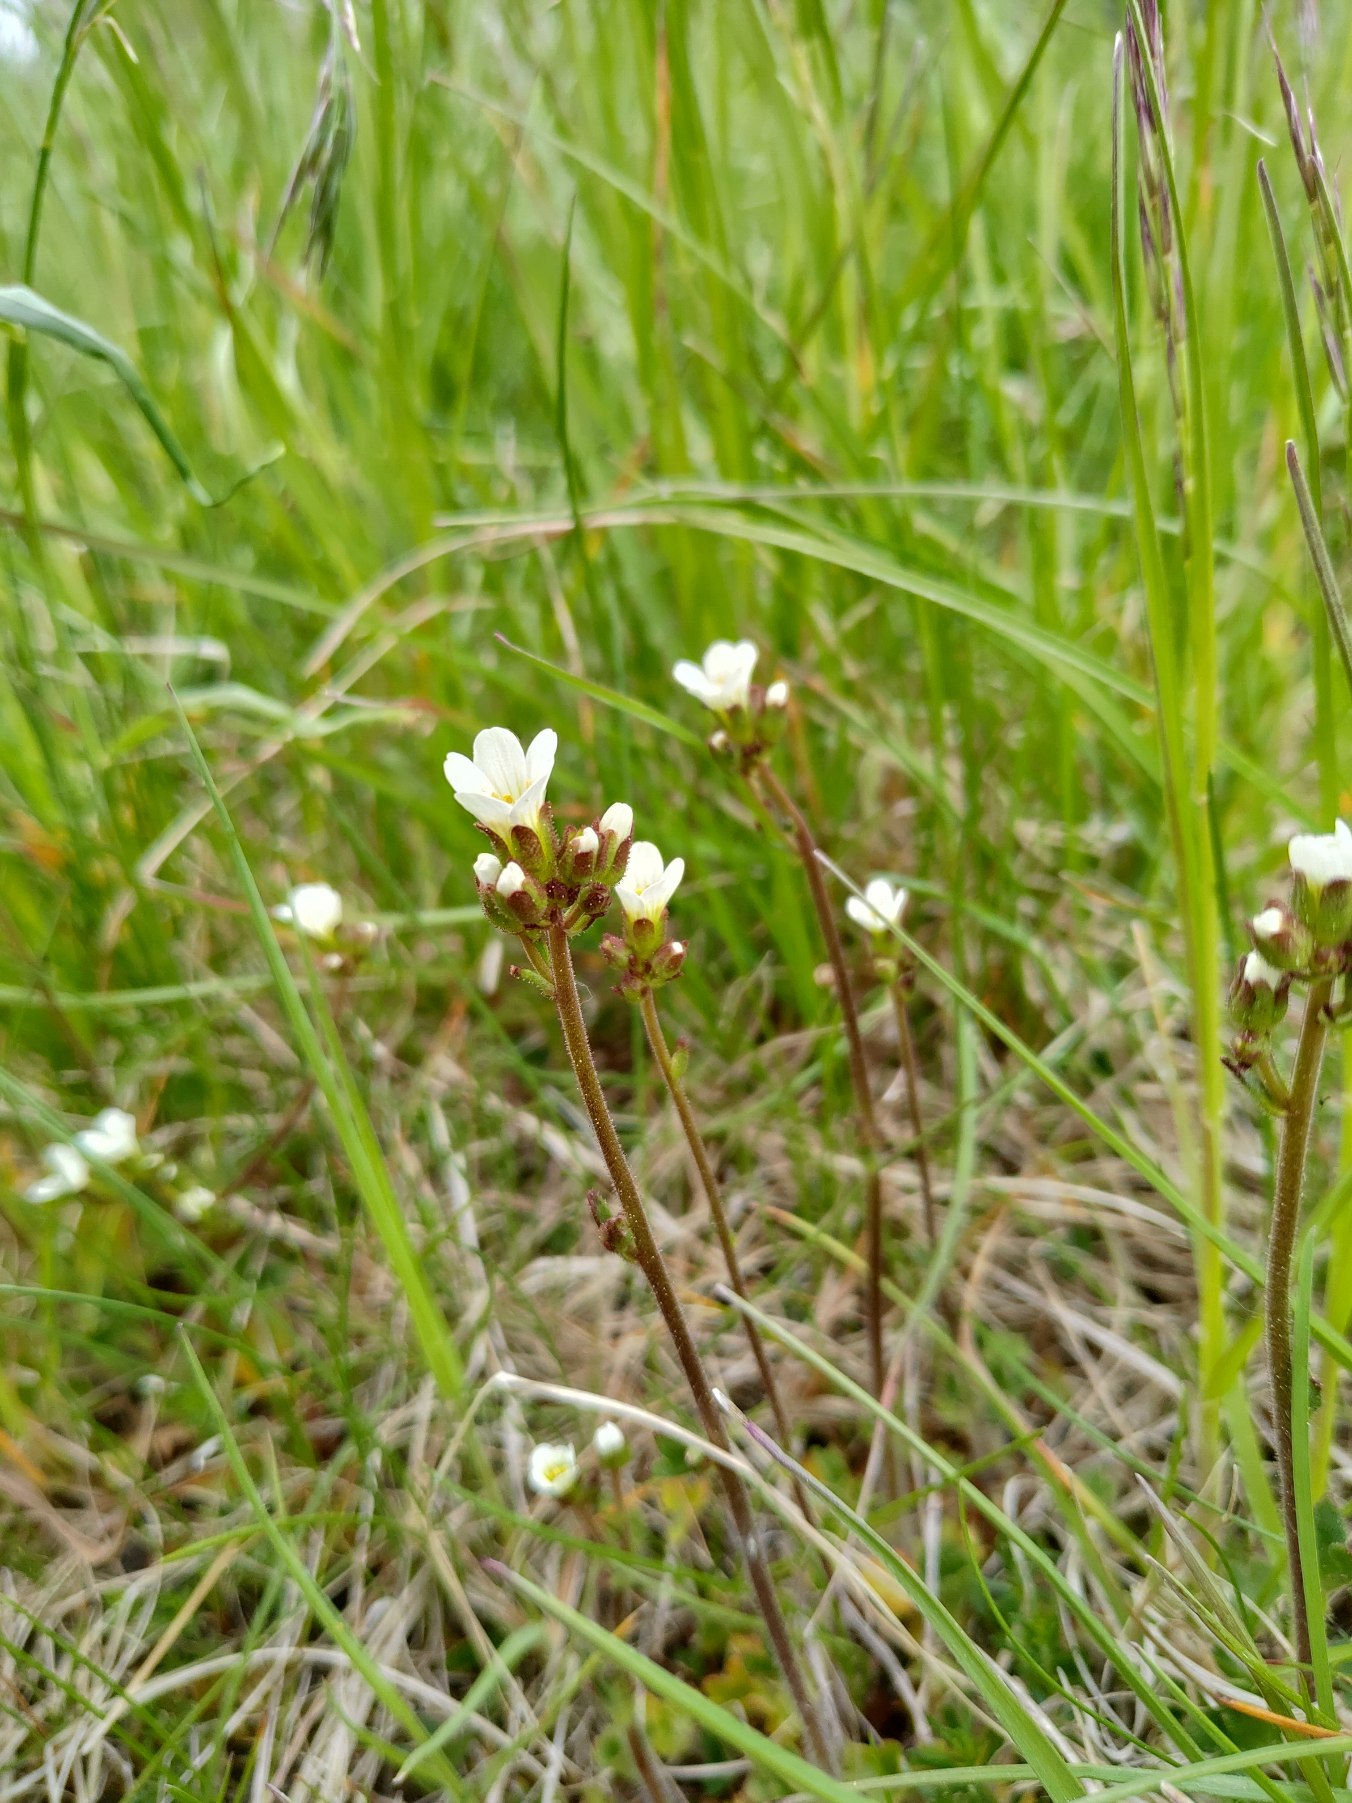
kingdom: Plantae
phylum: Tracheophyta
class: Magnoliopsida
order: Saxifragales
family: Saxifragaceae
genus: Saxifraga
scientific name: Saxifraga granulata
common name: Kornet stenbræk
